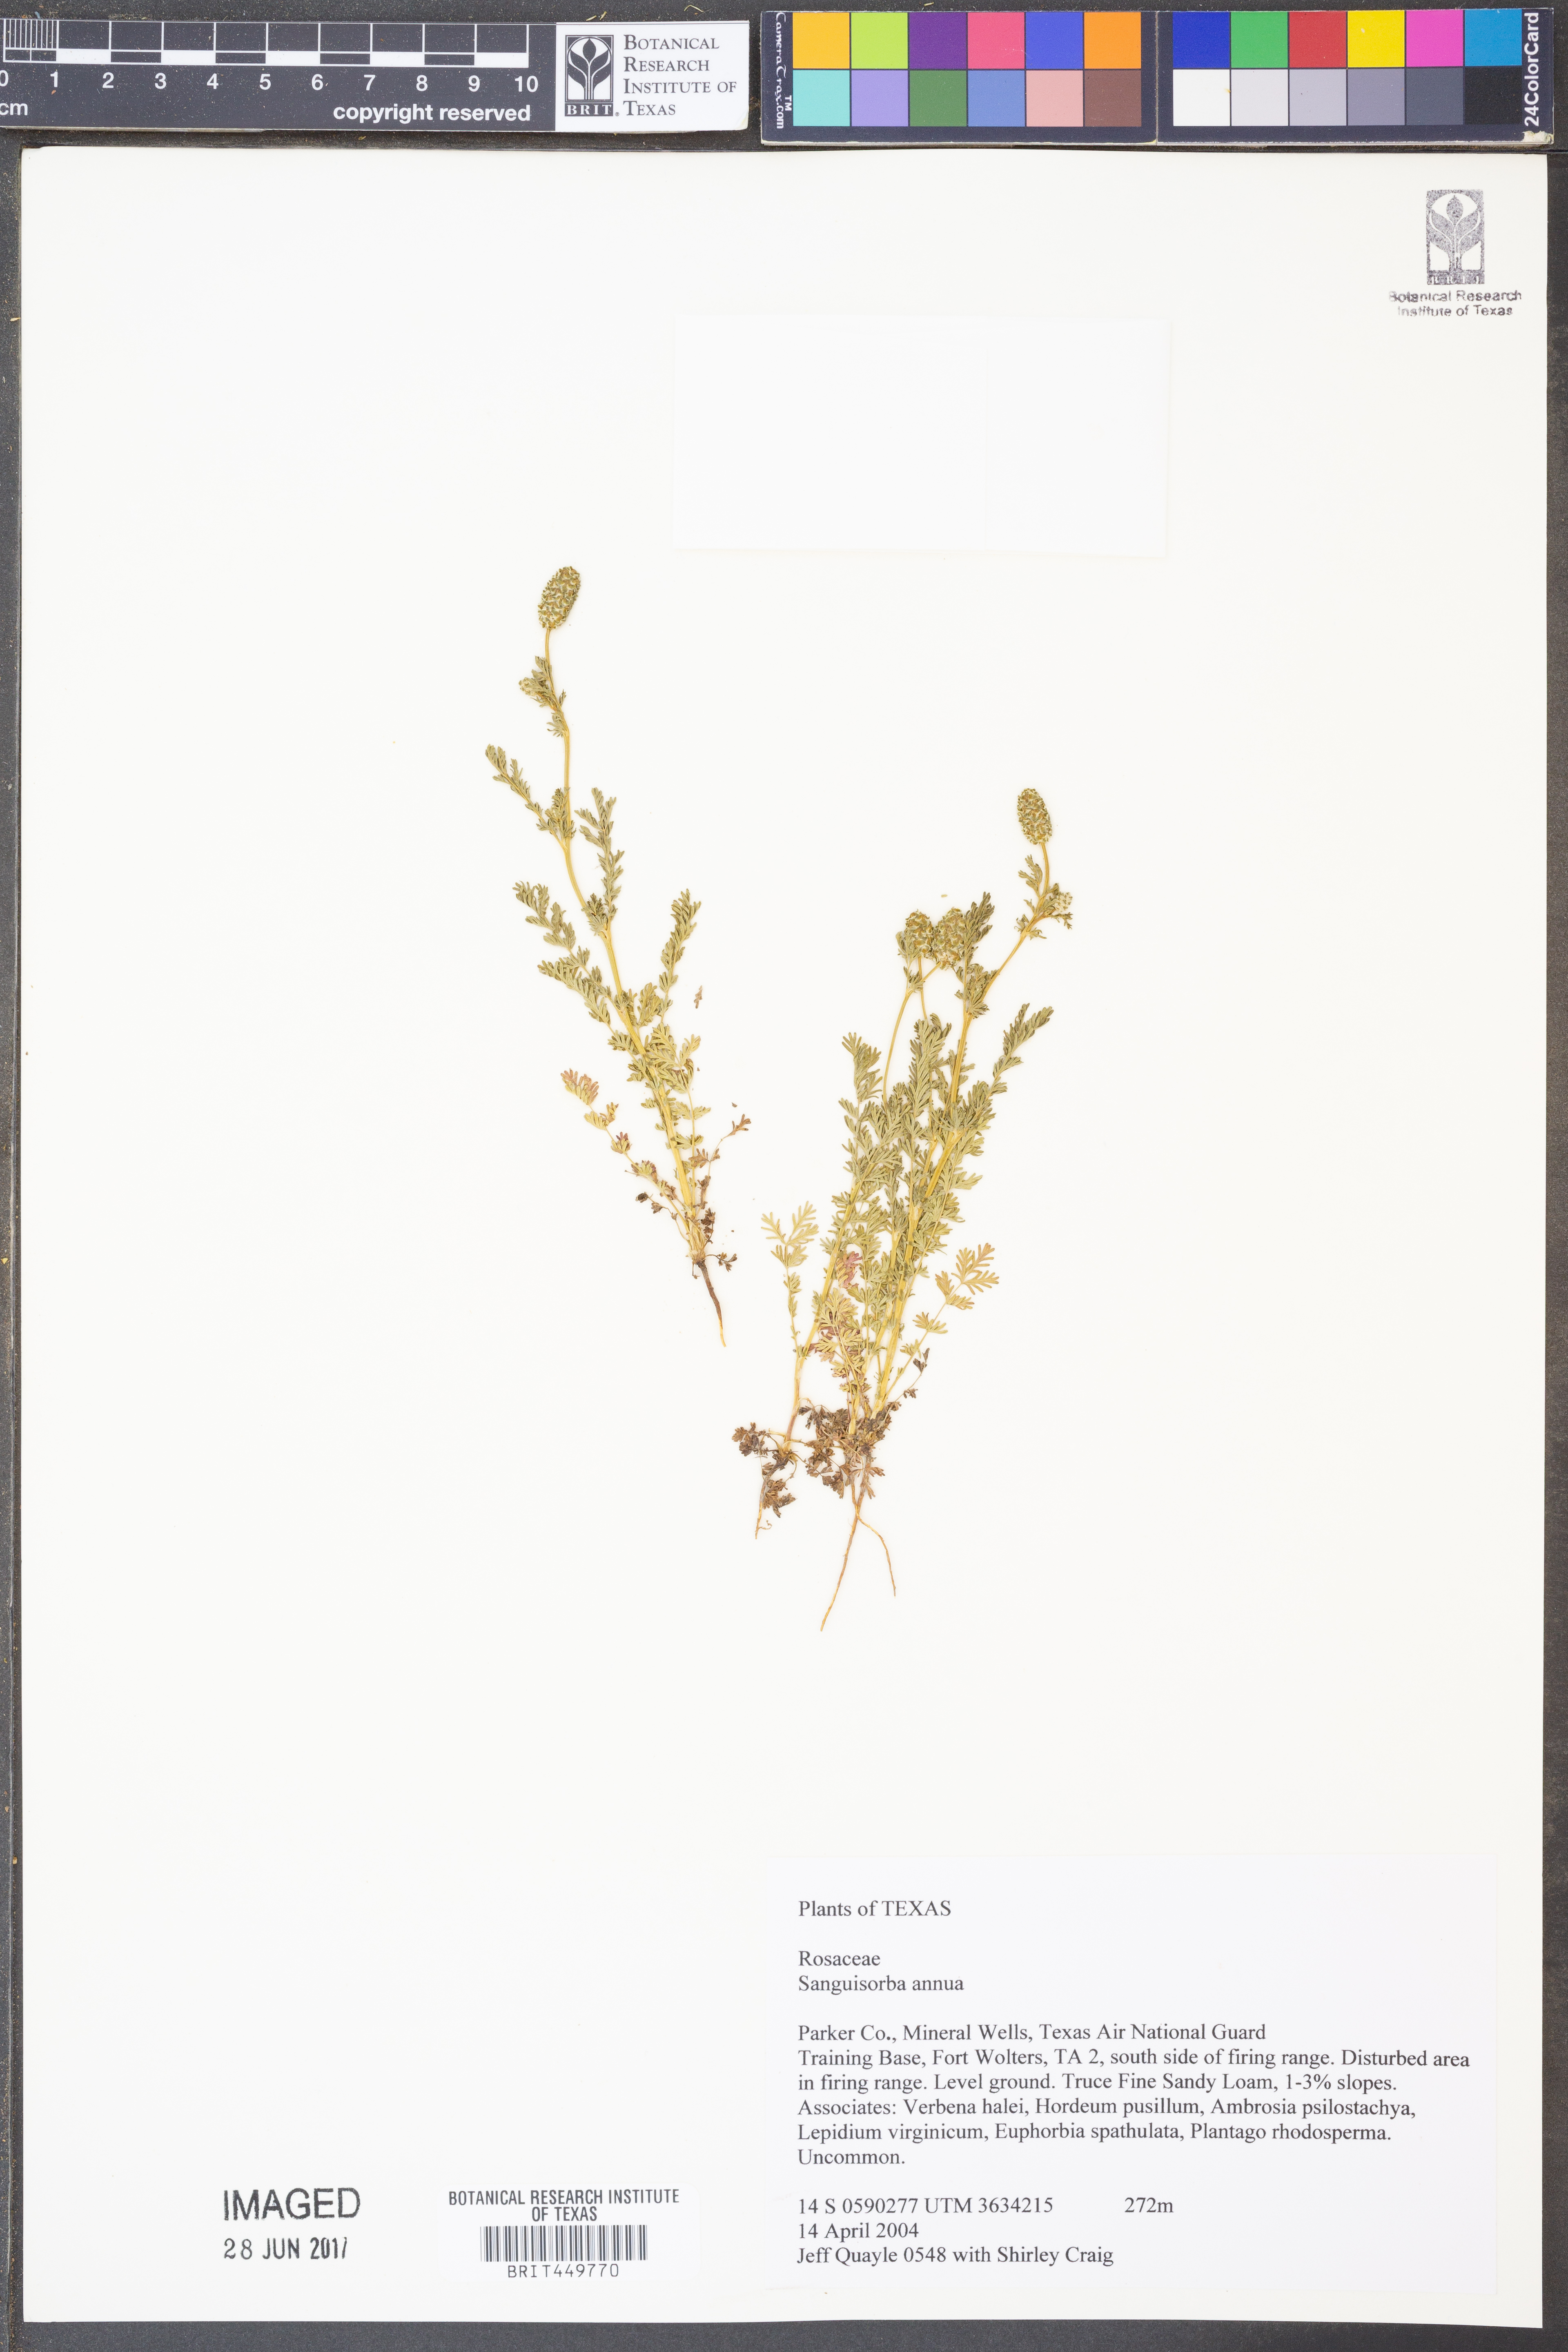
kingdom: Plantae
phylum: Tracheophyta
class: Magnoliopsida
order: Rosales
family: Rosaceae
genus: Poteridium
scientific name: Poteridium annuum
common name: Annual burnet
